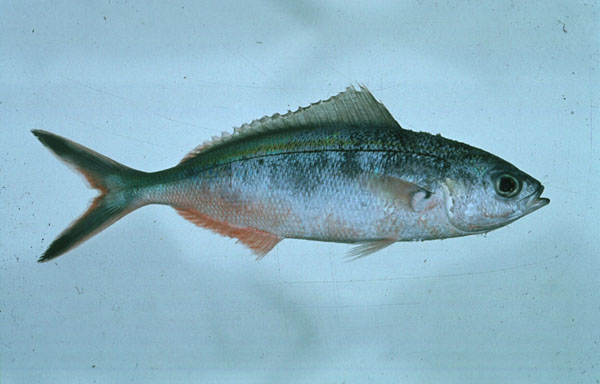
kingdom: Animalia
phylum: Chordata
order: Perciformes
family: Caesionidae
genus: Caesio
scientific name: Caesio caerulaurea
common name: Blue and gold fusilier
